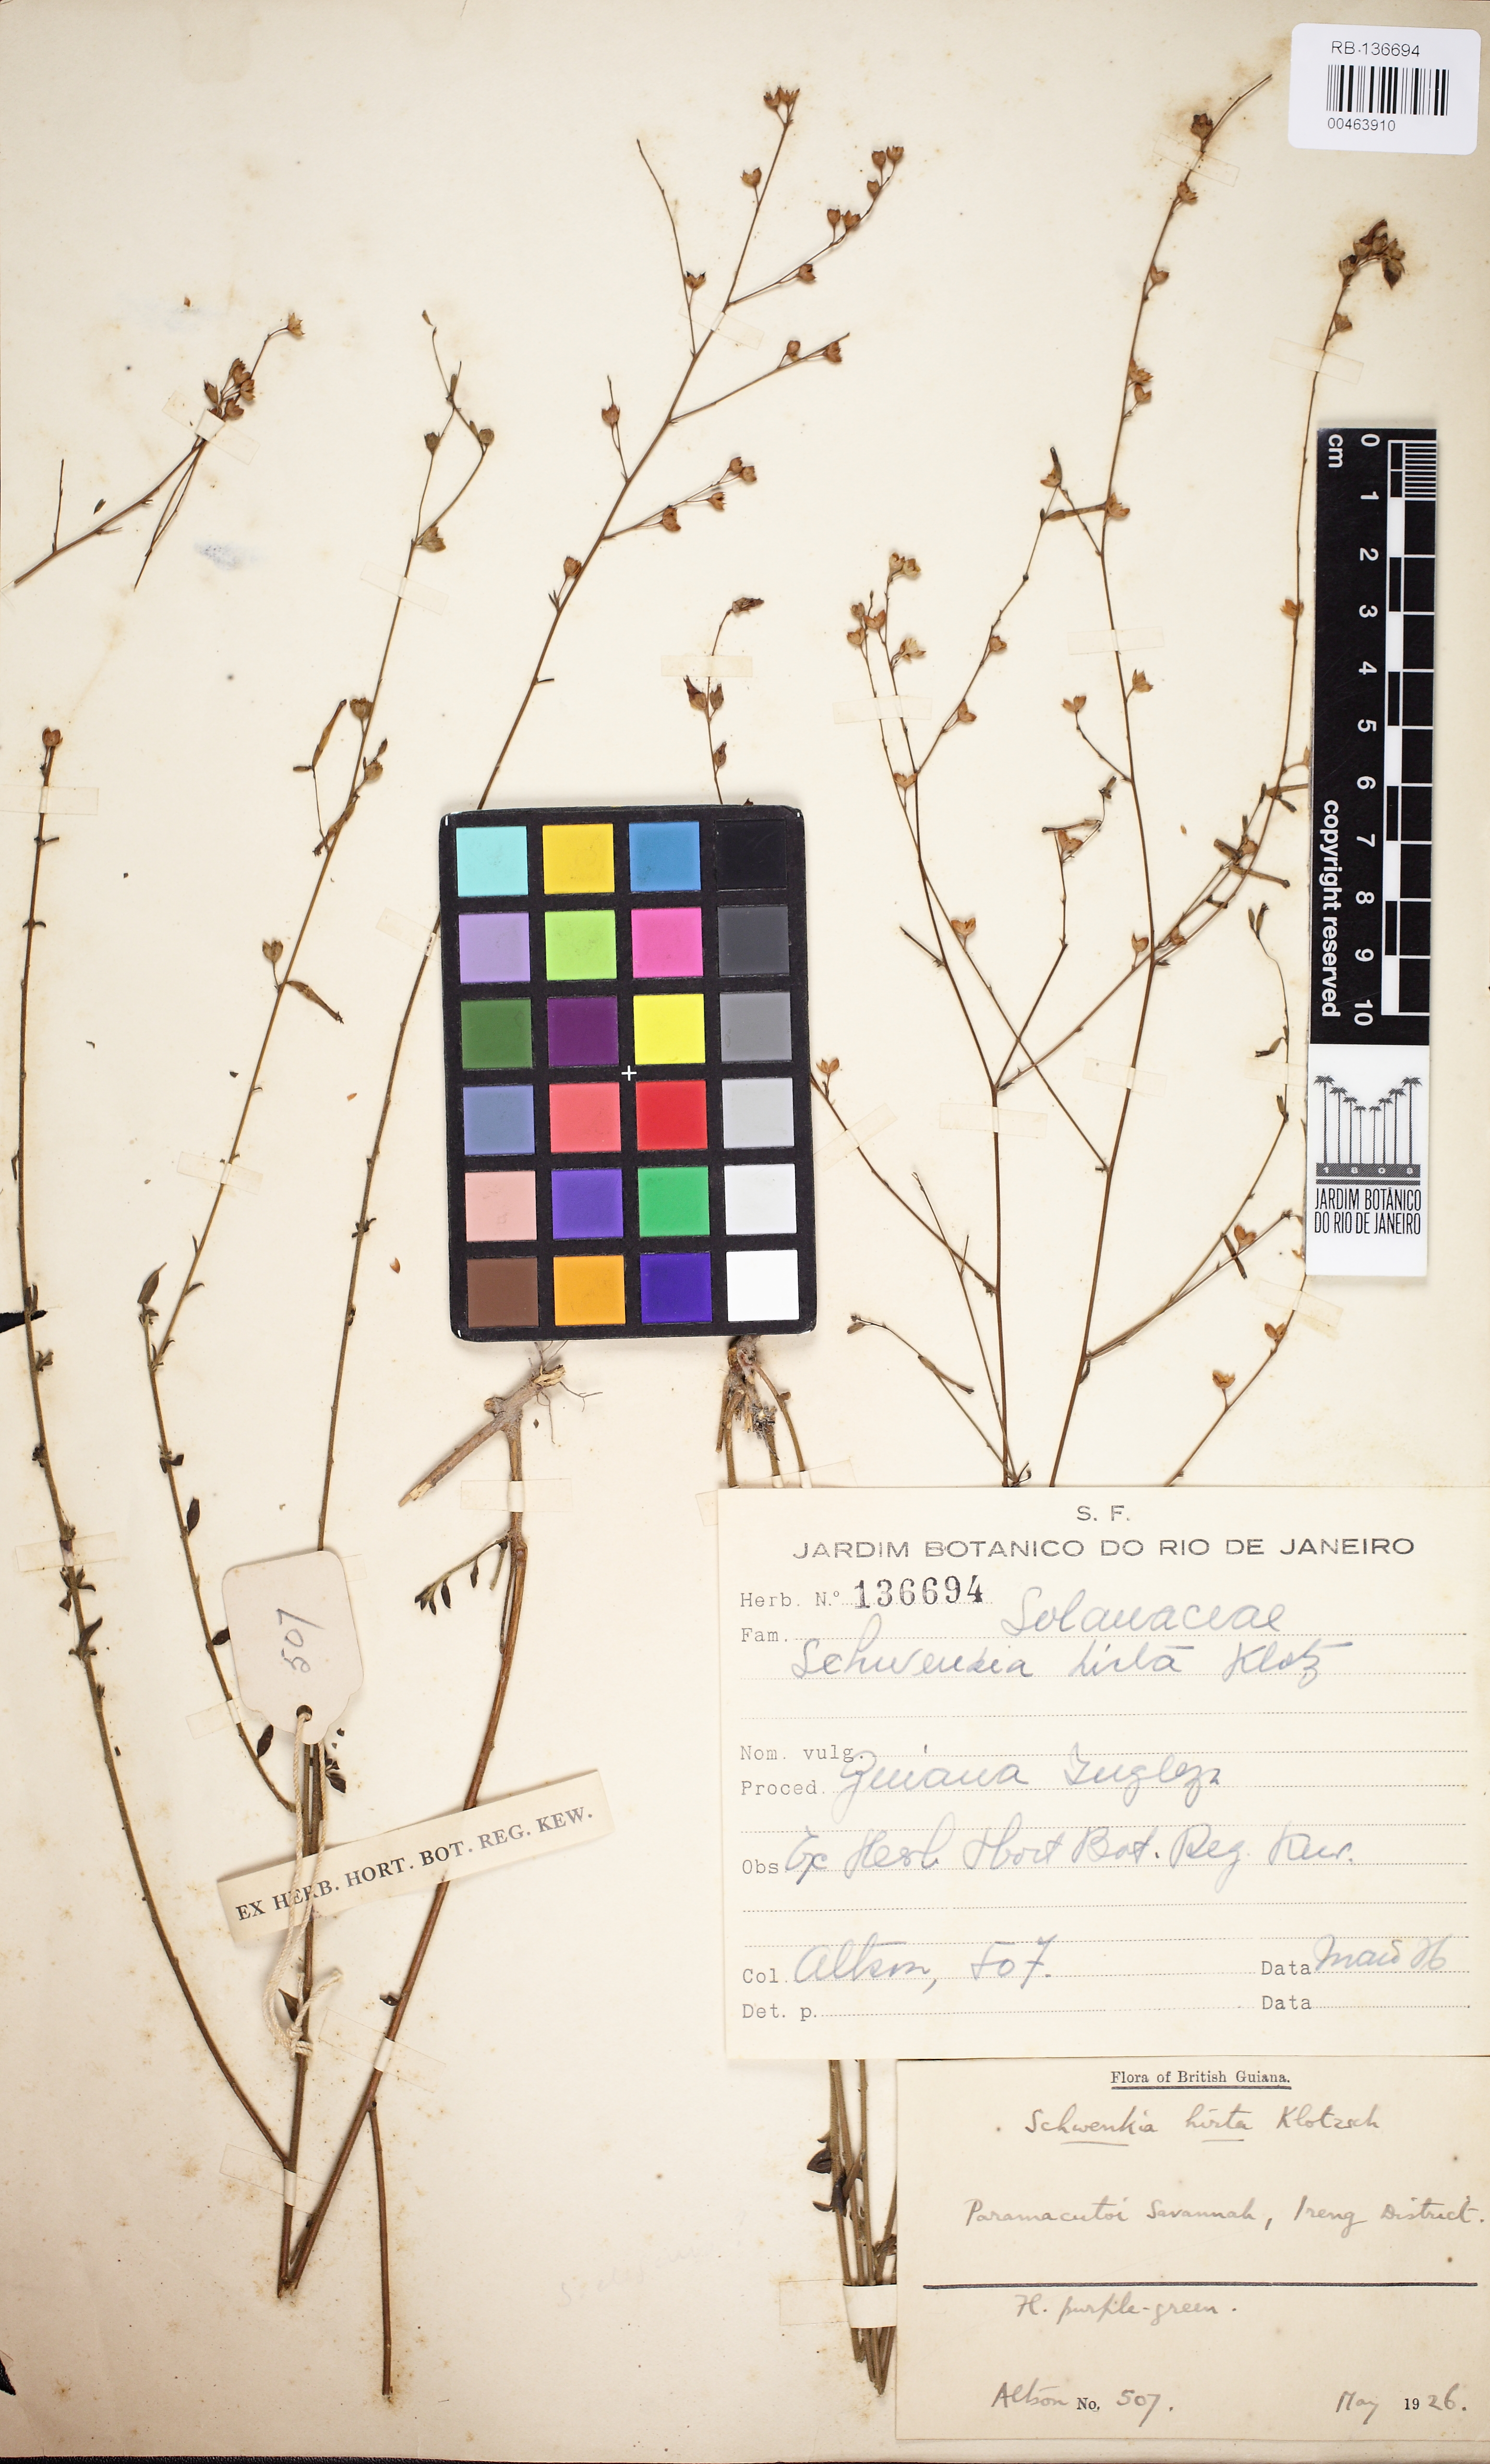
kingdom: Plantae
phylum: Tracheophyta
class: Magnoliopsida
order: Solanales
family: Solanaceae
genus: Schwenckia
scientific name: Schwenckia americana
